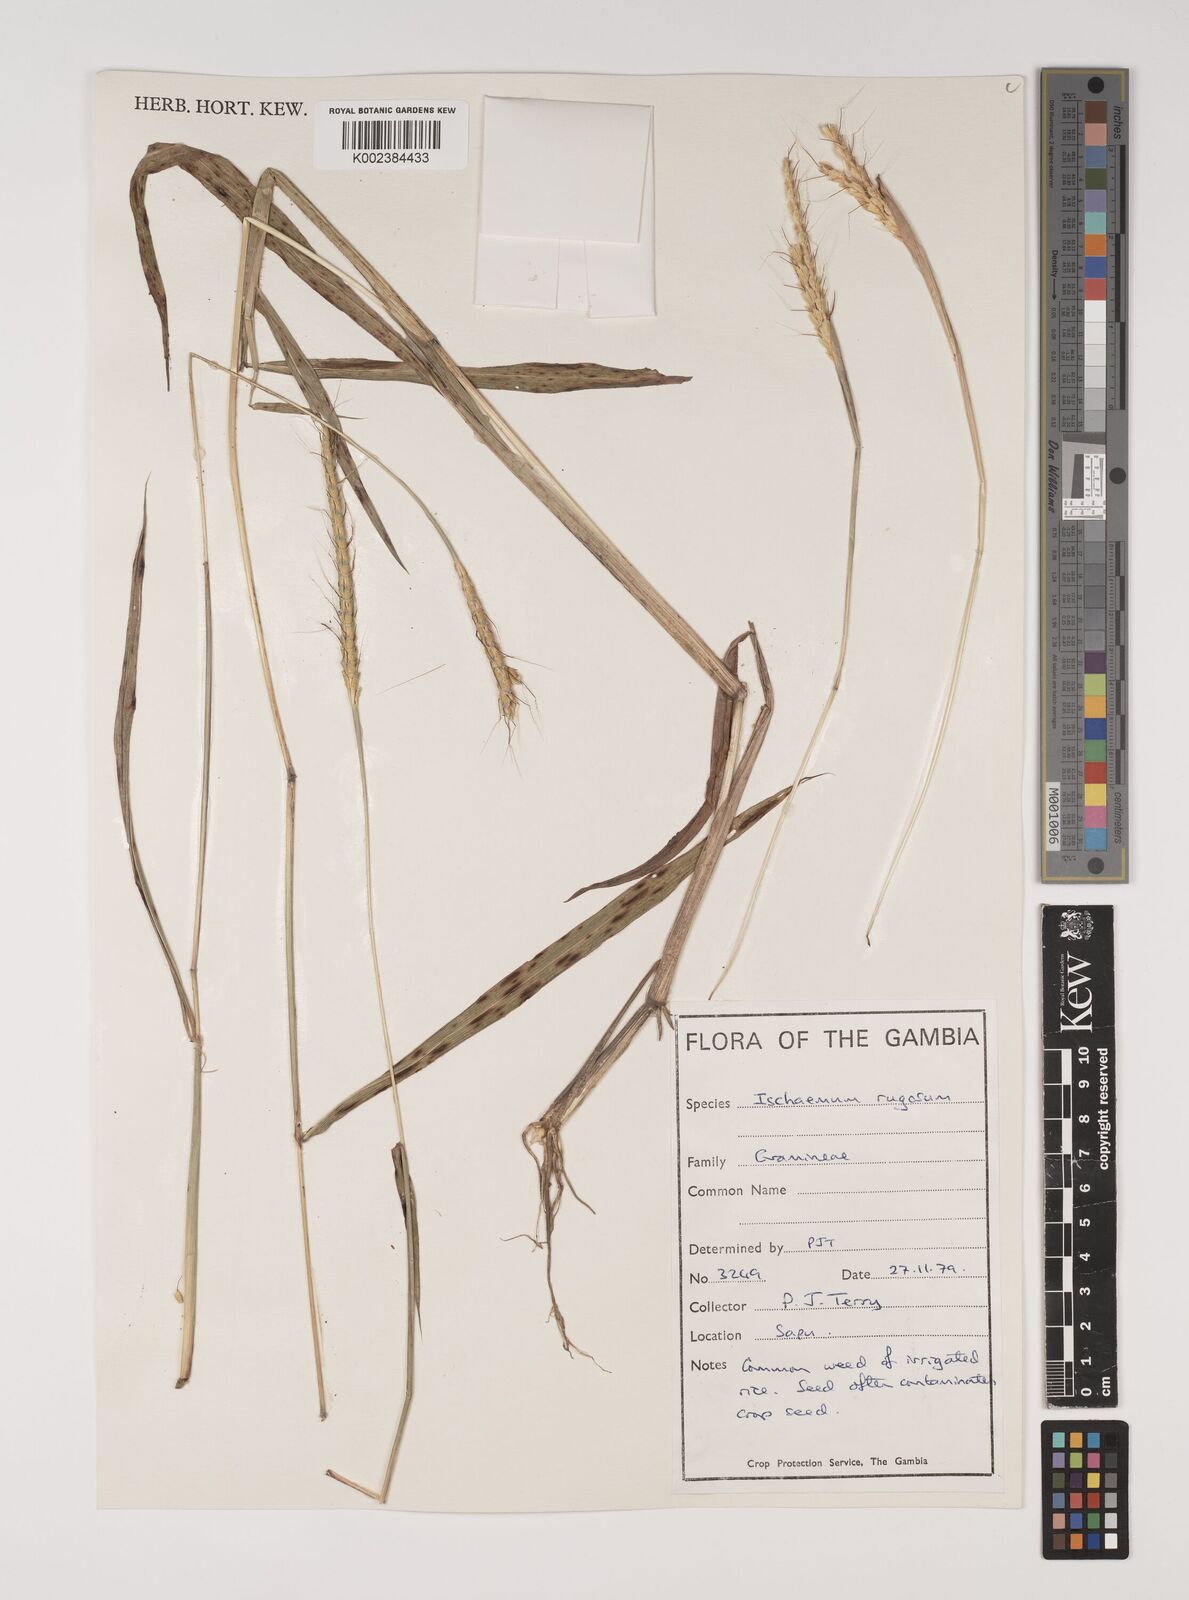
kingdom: Plantae
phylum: Tracheophyta
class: Liliopsida
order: Poales
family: Poaceae
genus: Ischaemum
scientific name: Ischaemum rugosum
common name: Saramatta grass
